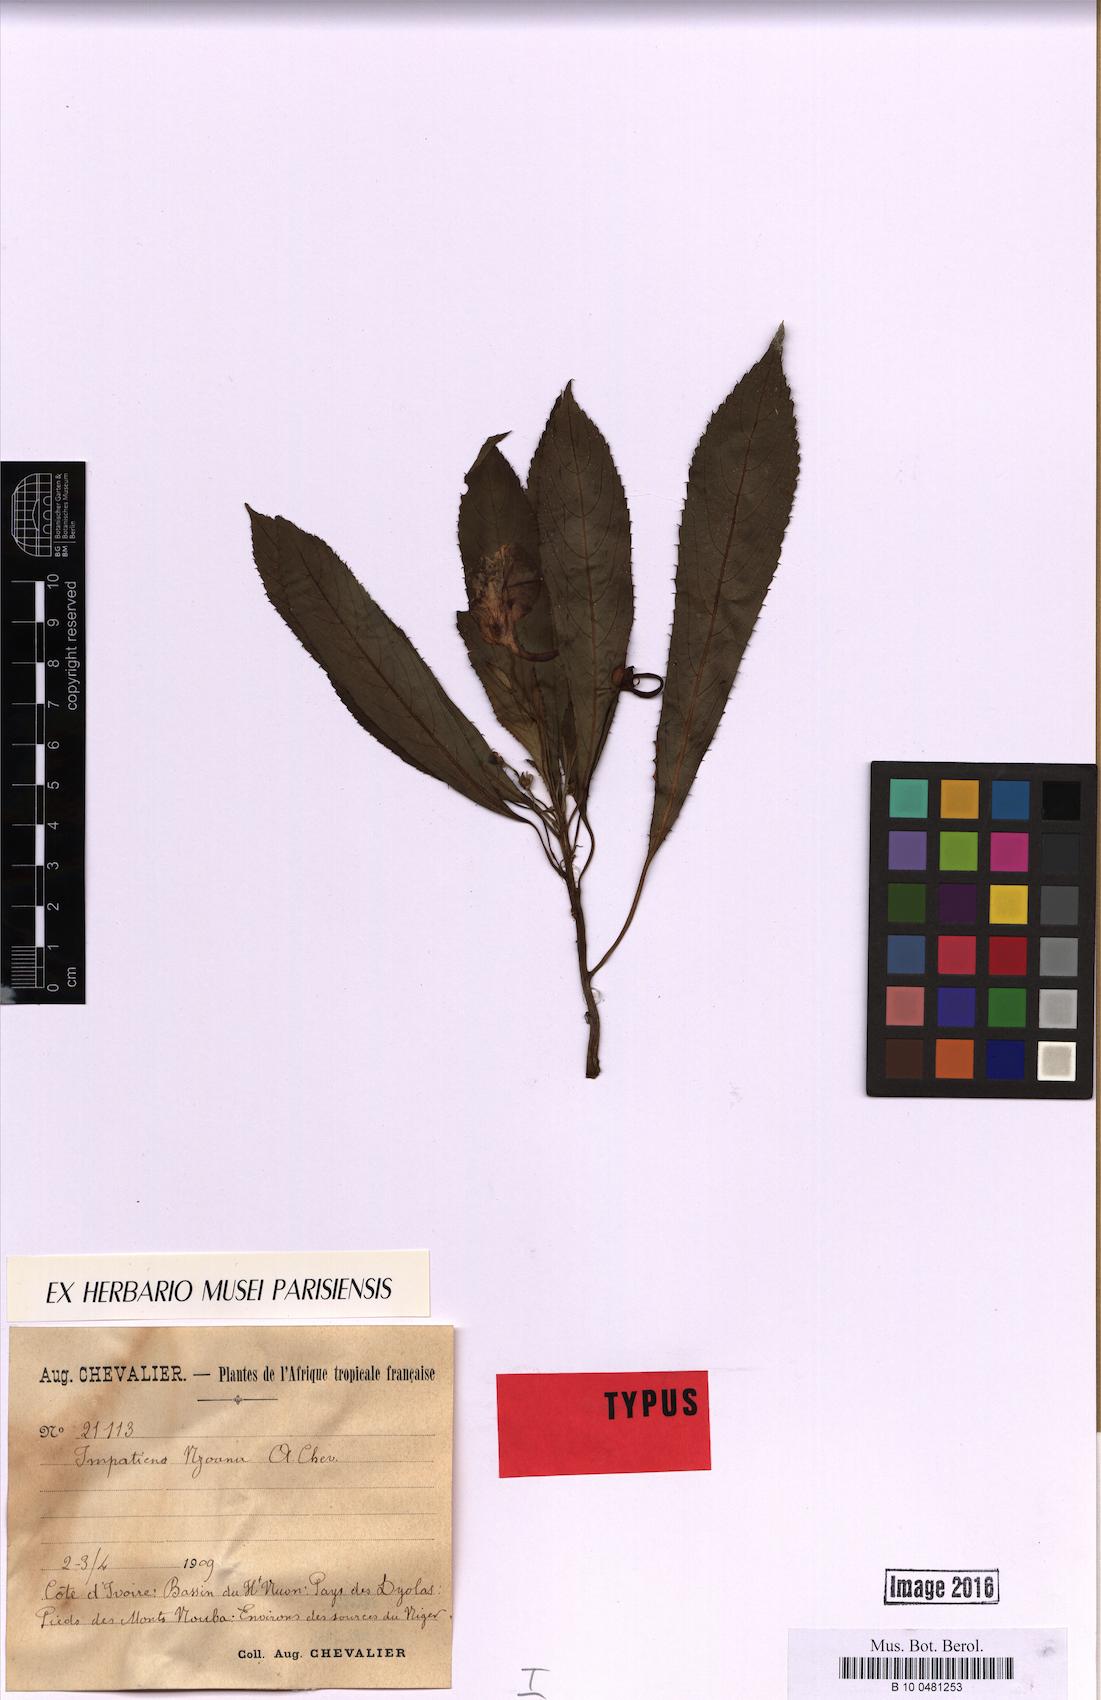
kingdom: Plantae
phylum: Tracheophyta
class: Magnoliopsida
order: Ericales
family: Balsaminaceae
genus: Impatiens
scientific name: Impatiens nzoana
